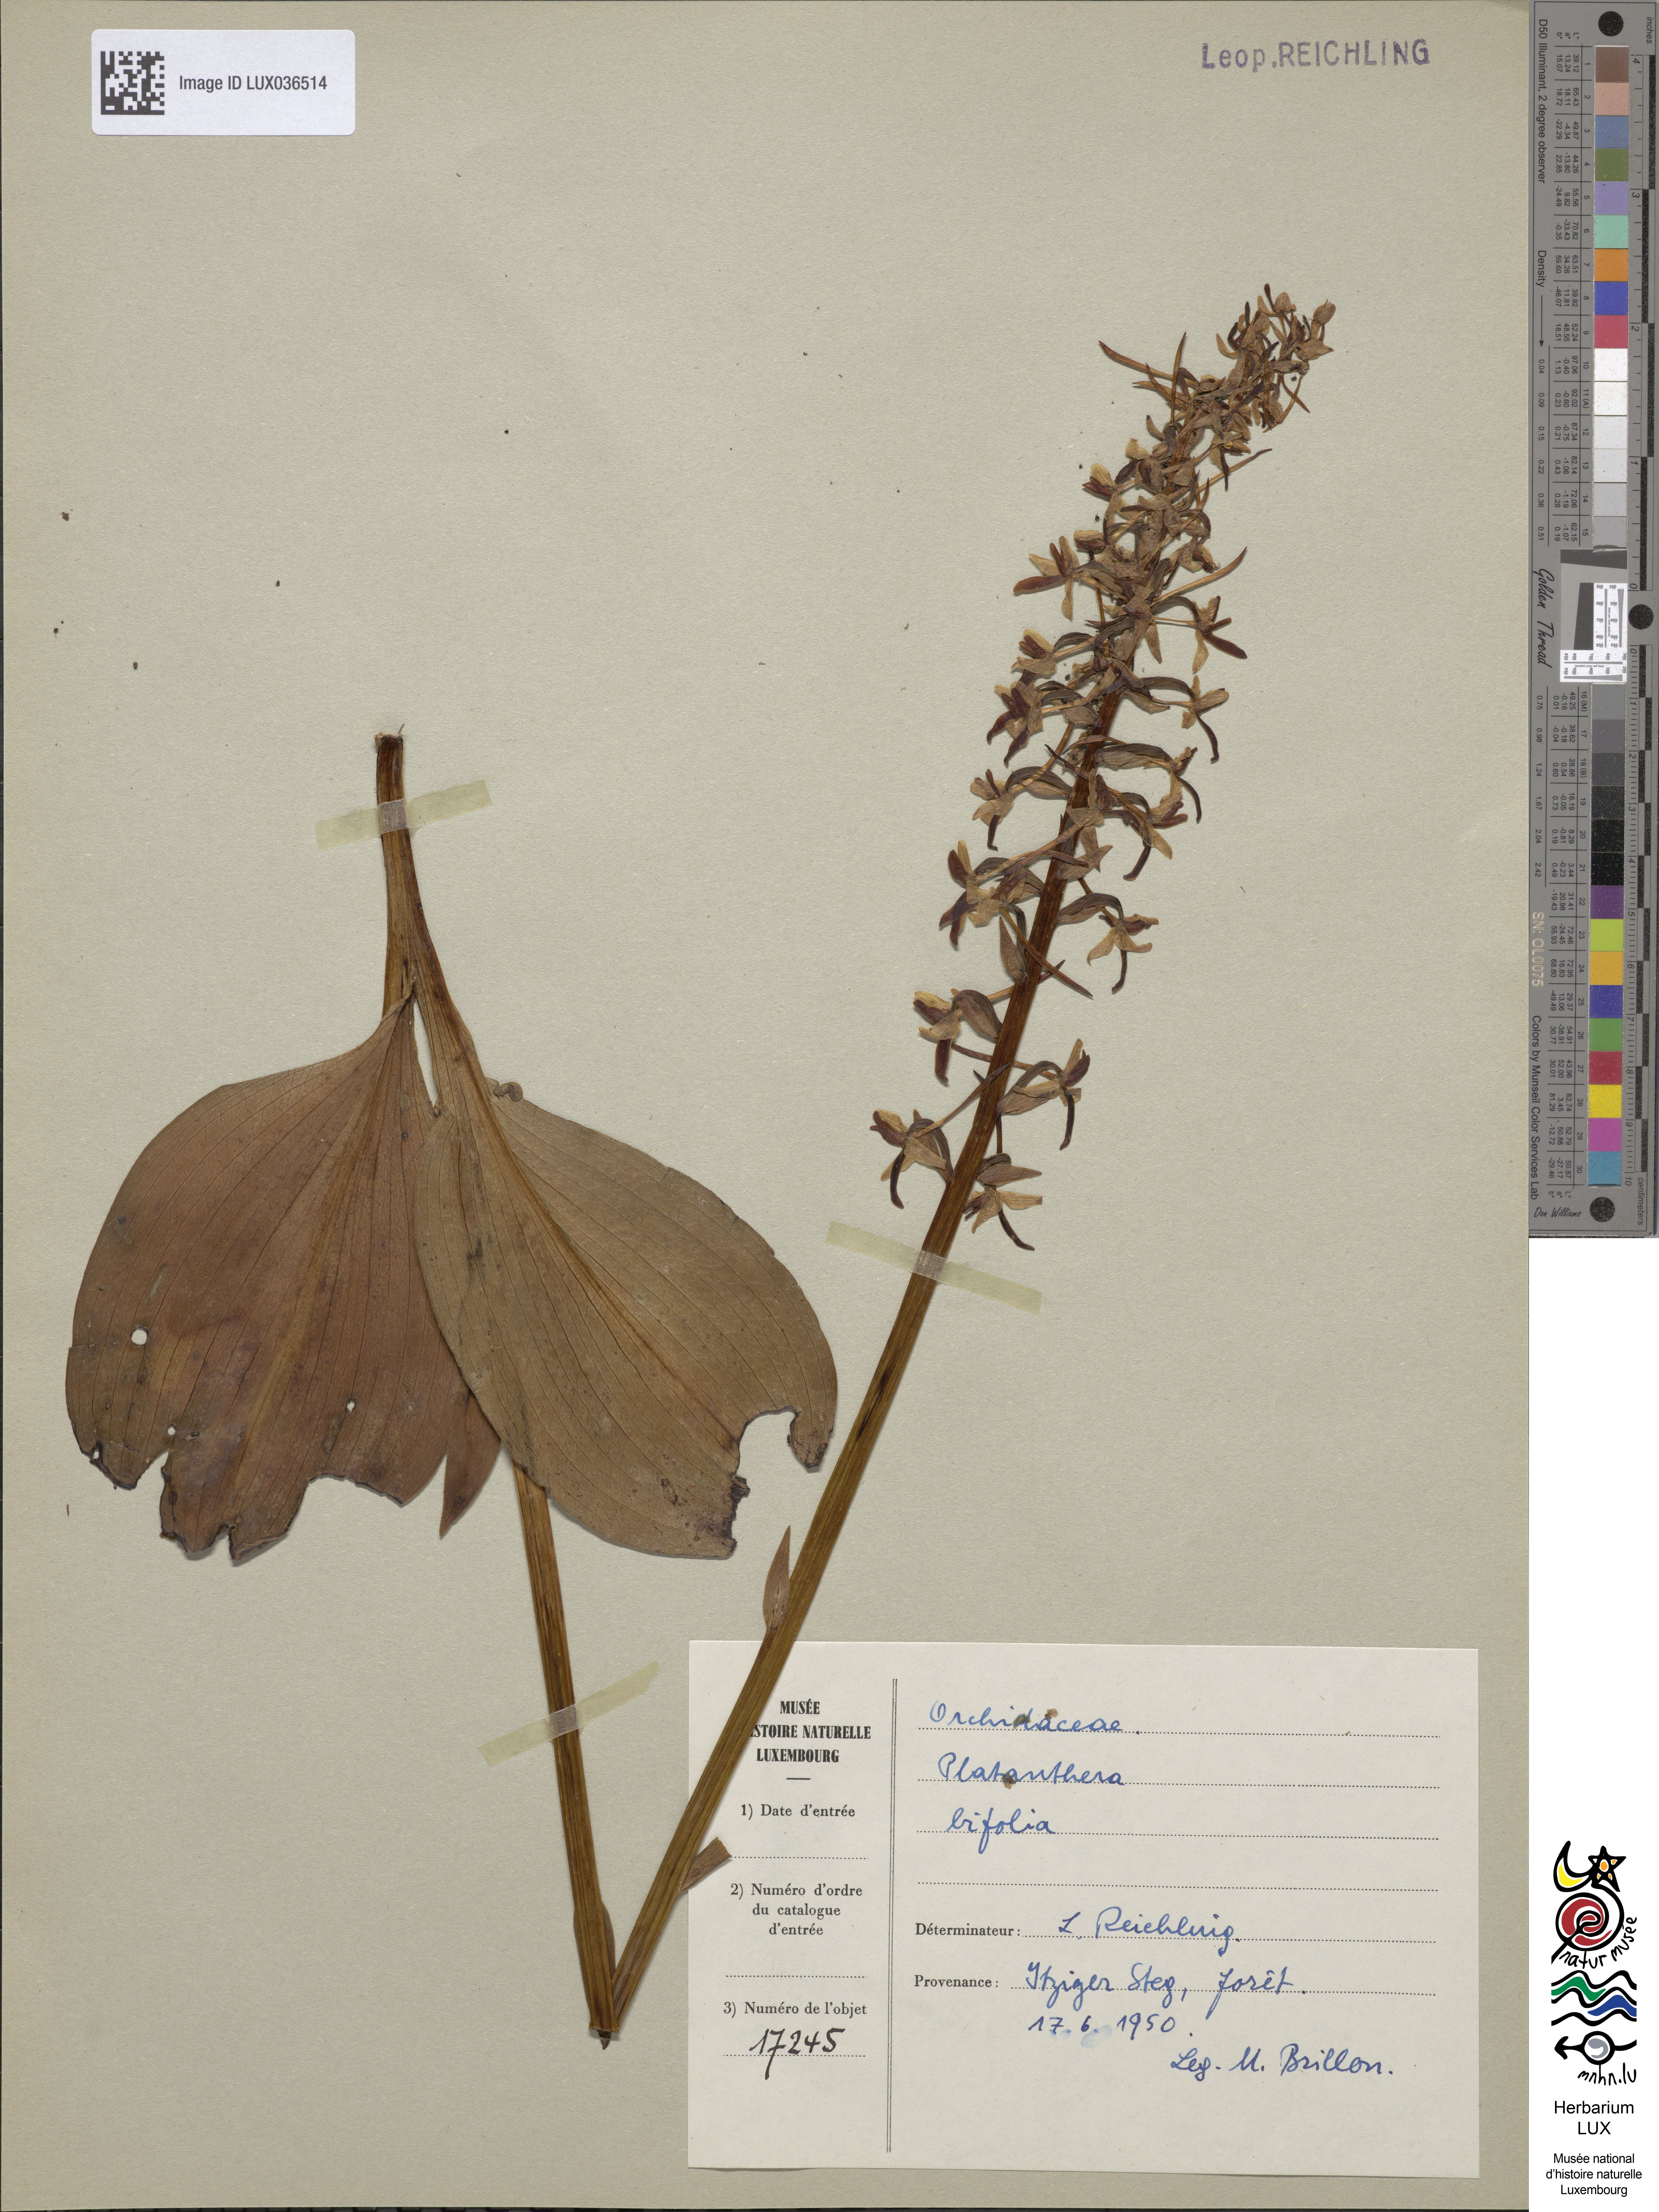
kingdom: Plantae
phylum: Tracheophyta
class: Liliopsida
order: Asparagales
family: Orchidaceae
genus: Platanthera
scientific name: Platanthera bifolia
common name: Lesser butterfly-orchid
